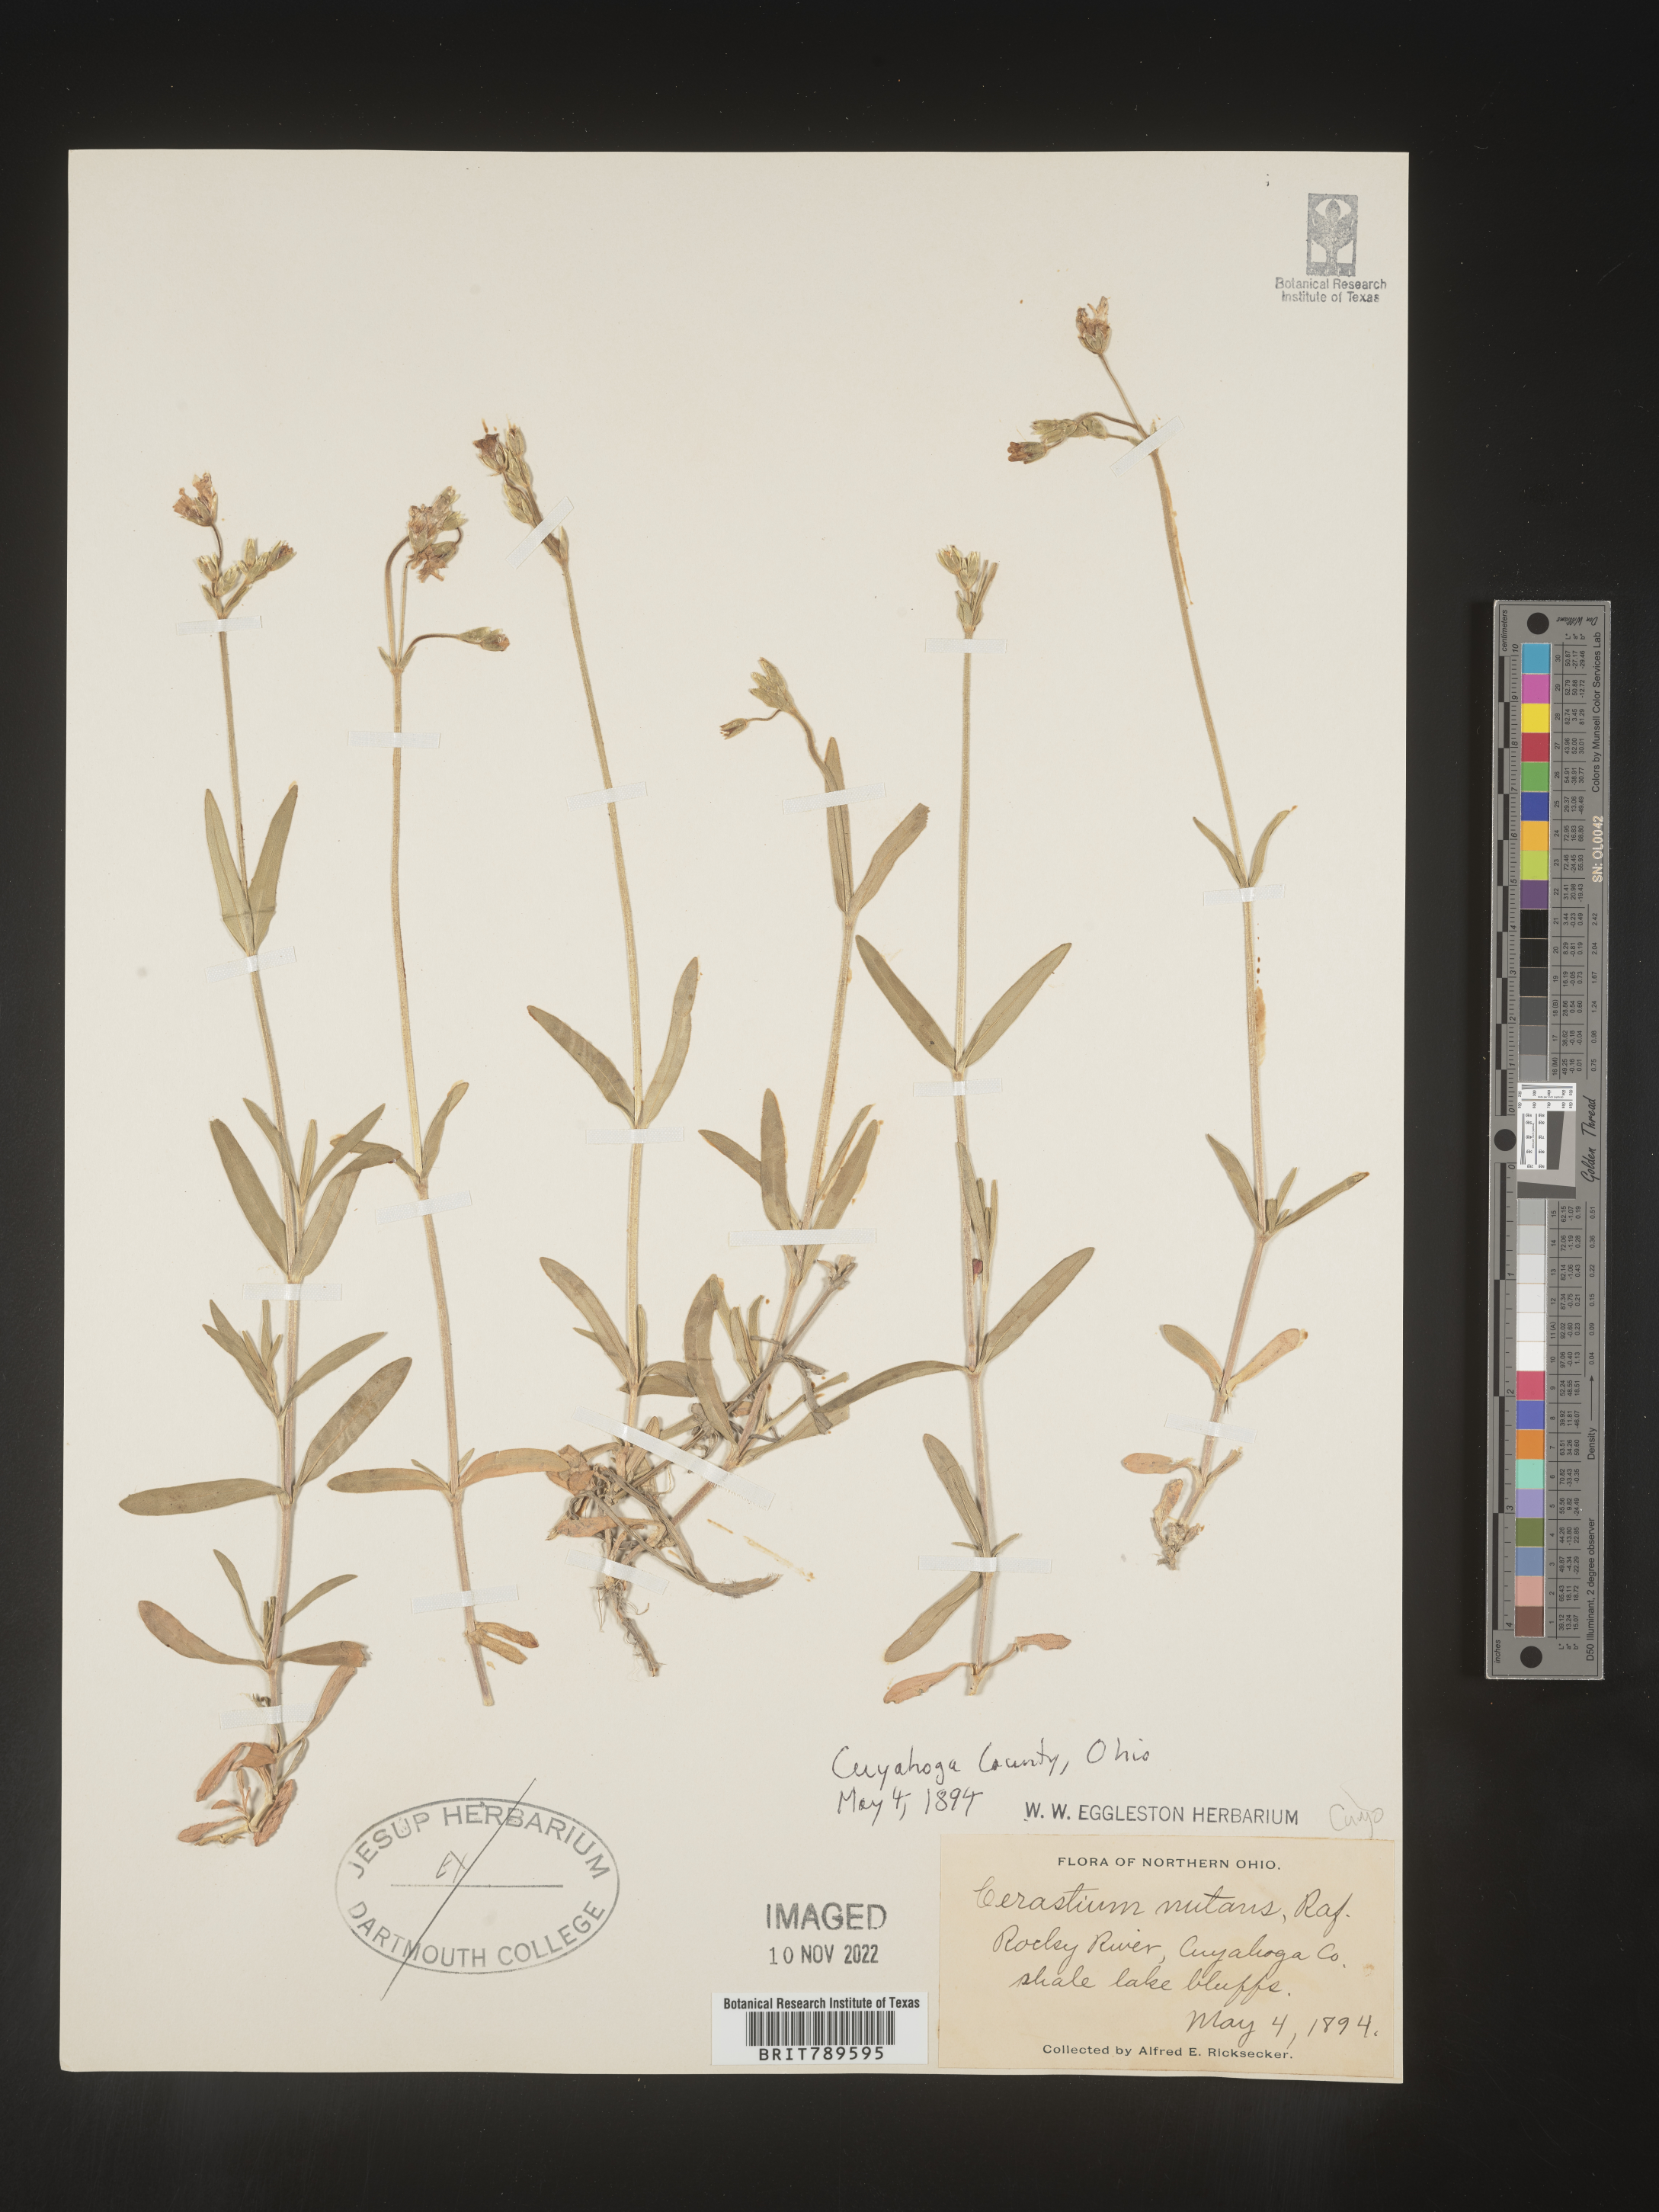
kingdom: Plantae
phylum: Tracheophyta
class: Magnoliopsida
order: Caryophyllales
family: Caryophyllaceae
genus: Cerastium
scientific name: Cerastium nutans
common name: Long-stalked chickweed
